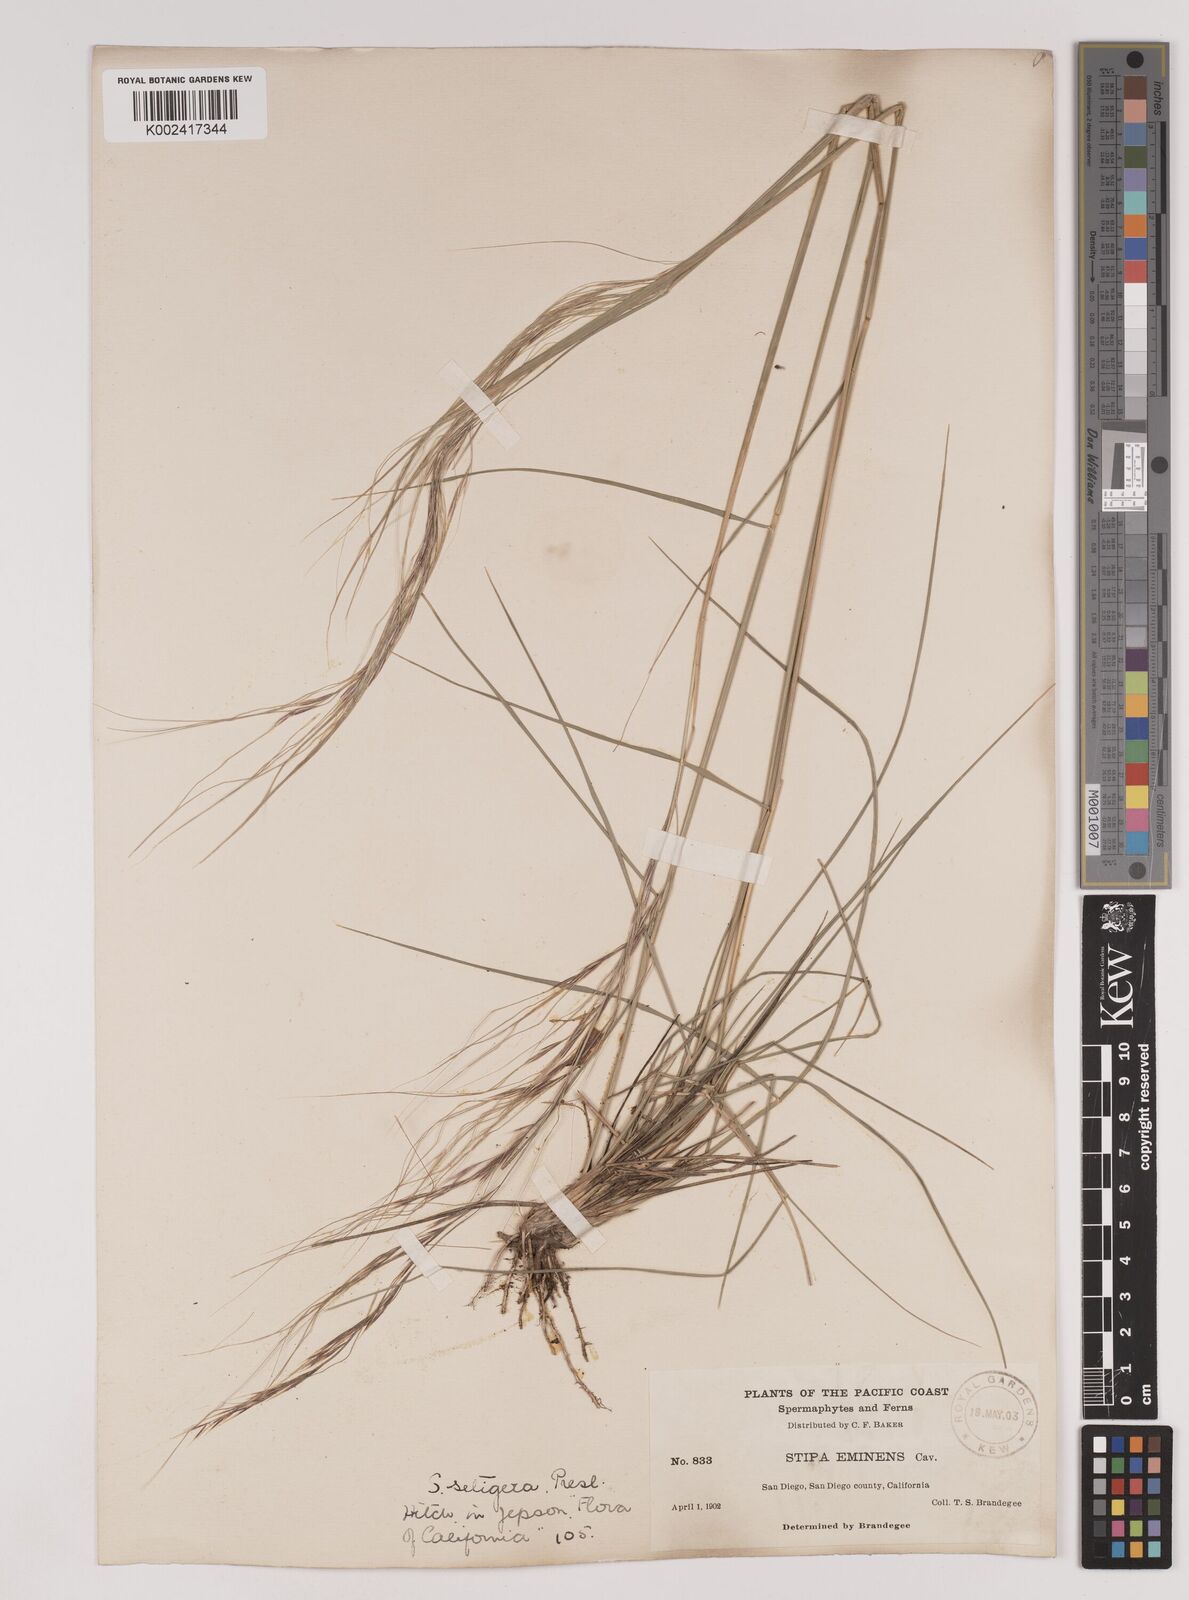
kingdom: Plantae
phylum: Tracheophyta
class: Liliopsida
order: Poales
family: Poaceae
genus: Nassella
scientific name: Nassella pulchra
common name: Purple needlegrass
